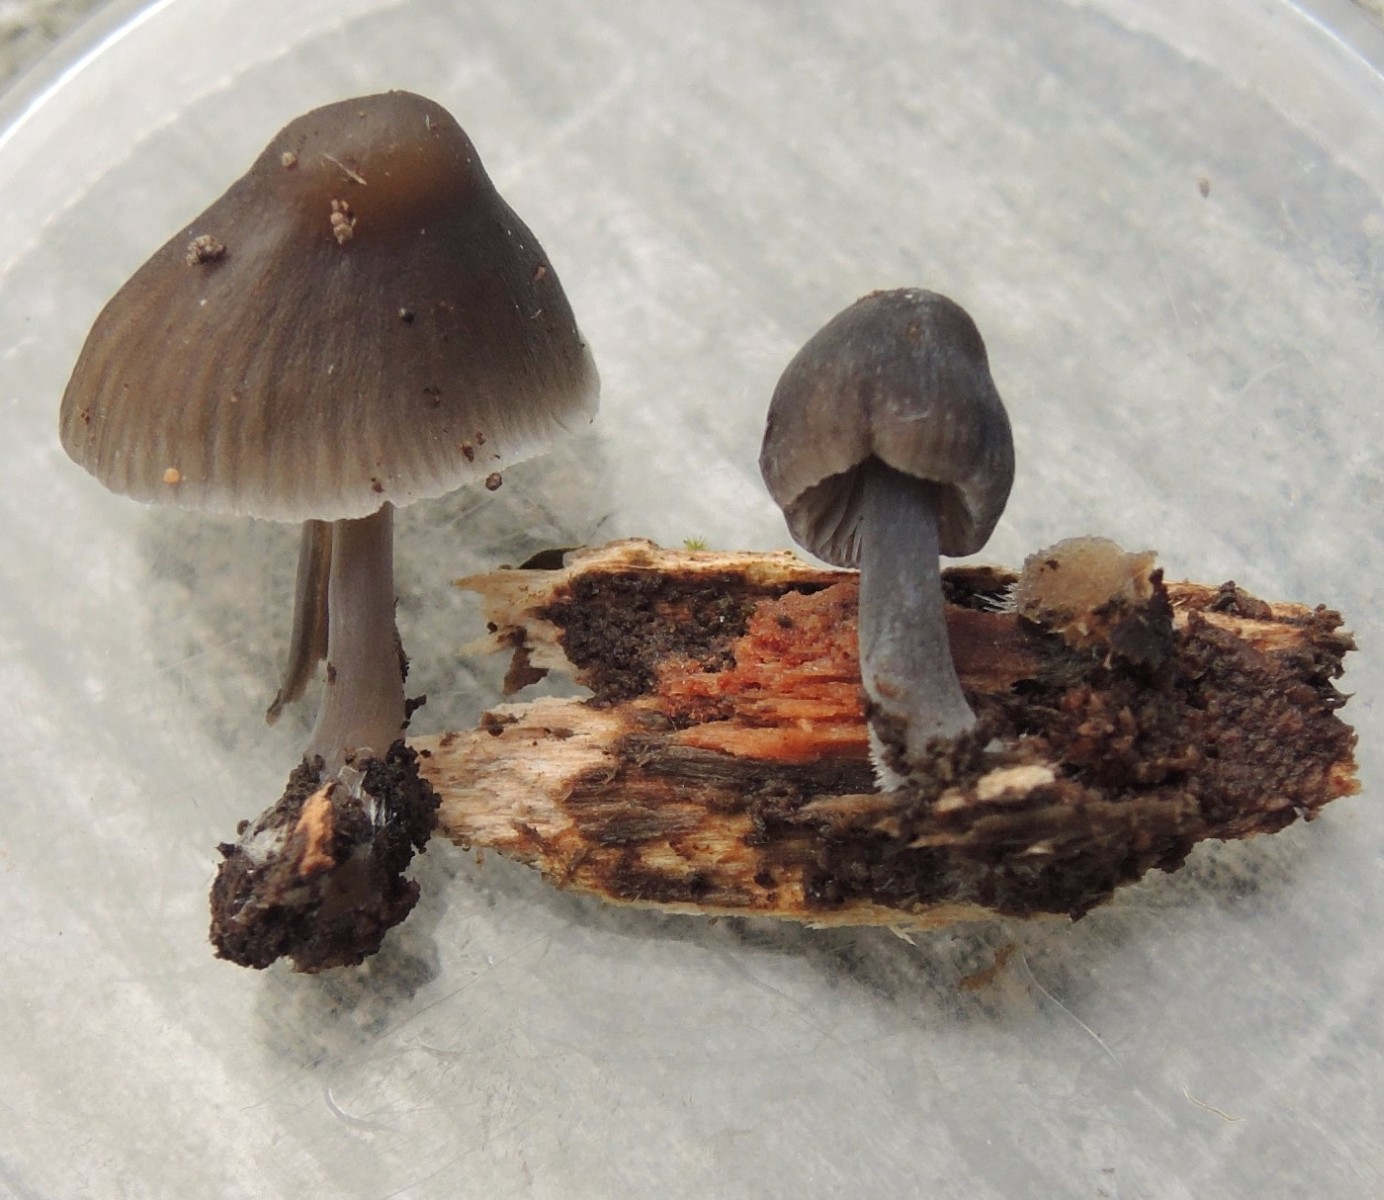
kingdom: Fungi
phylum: Basidiomycota
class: Agaricomycetes
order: Agaricales
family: Mycenaceae
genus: Mycena
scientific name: Mycena abramsii
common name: sommer-huesvamp
